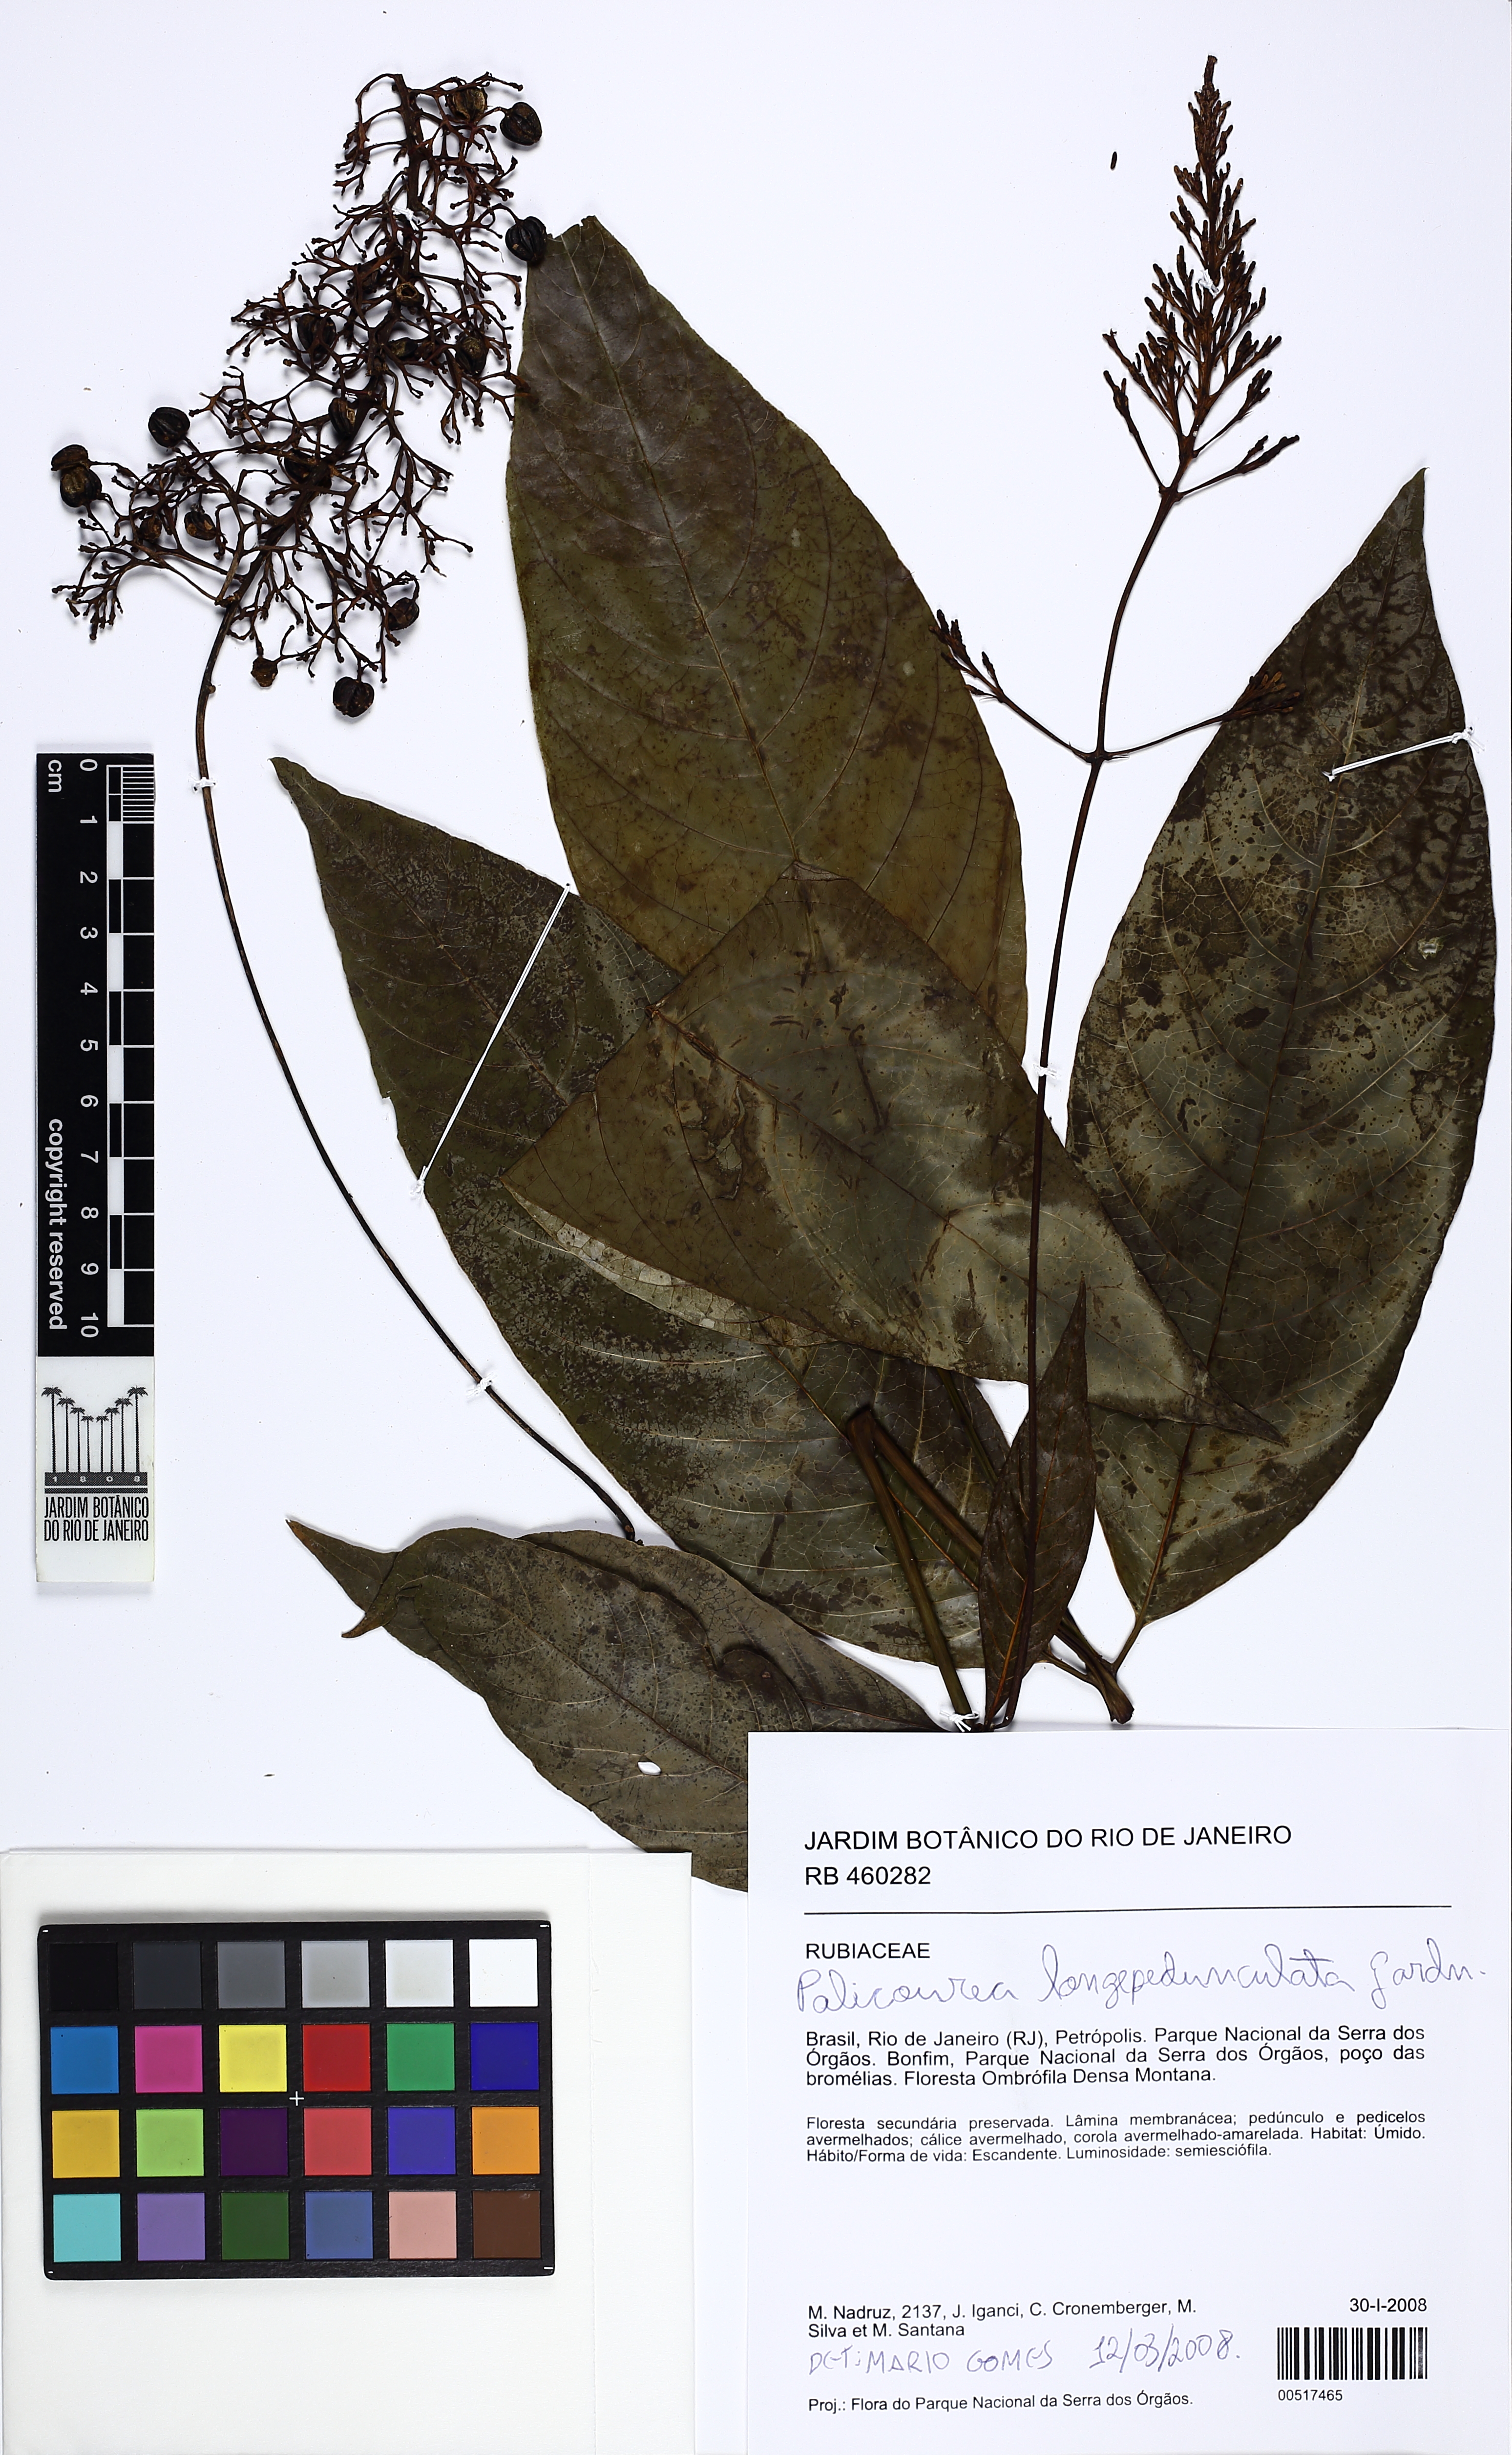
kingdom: Plantae
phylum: Tracheophyta
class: Magnoliopsida
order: Gentianales
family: Rubiaceae
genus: Palicourea
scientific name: Palicourea longipedunculata
